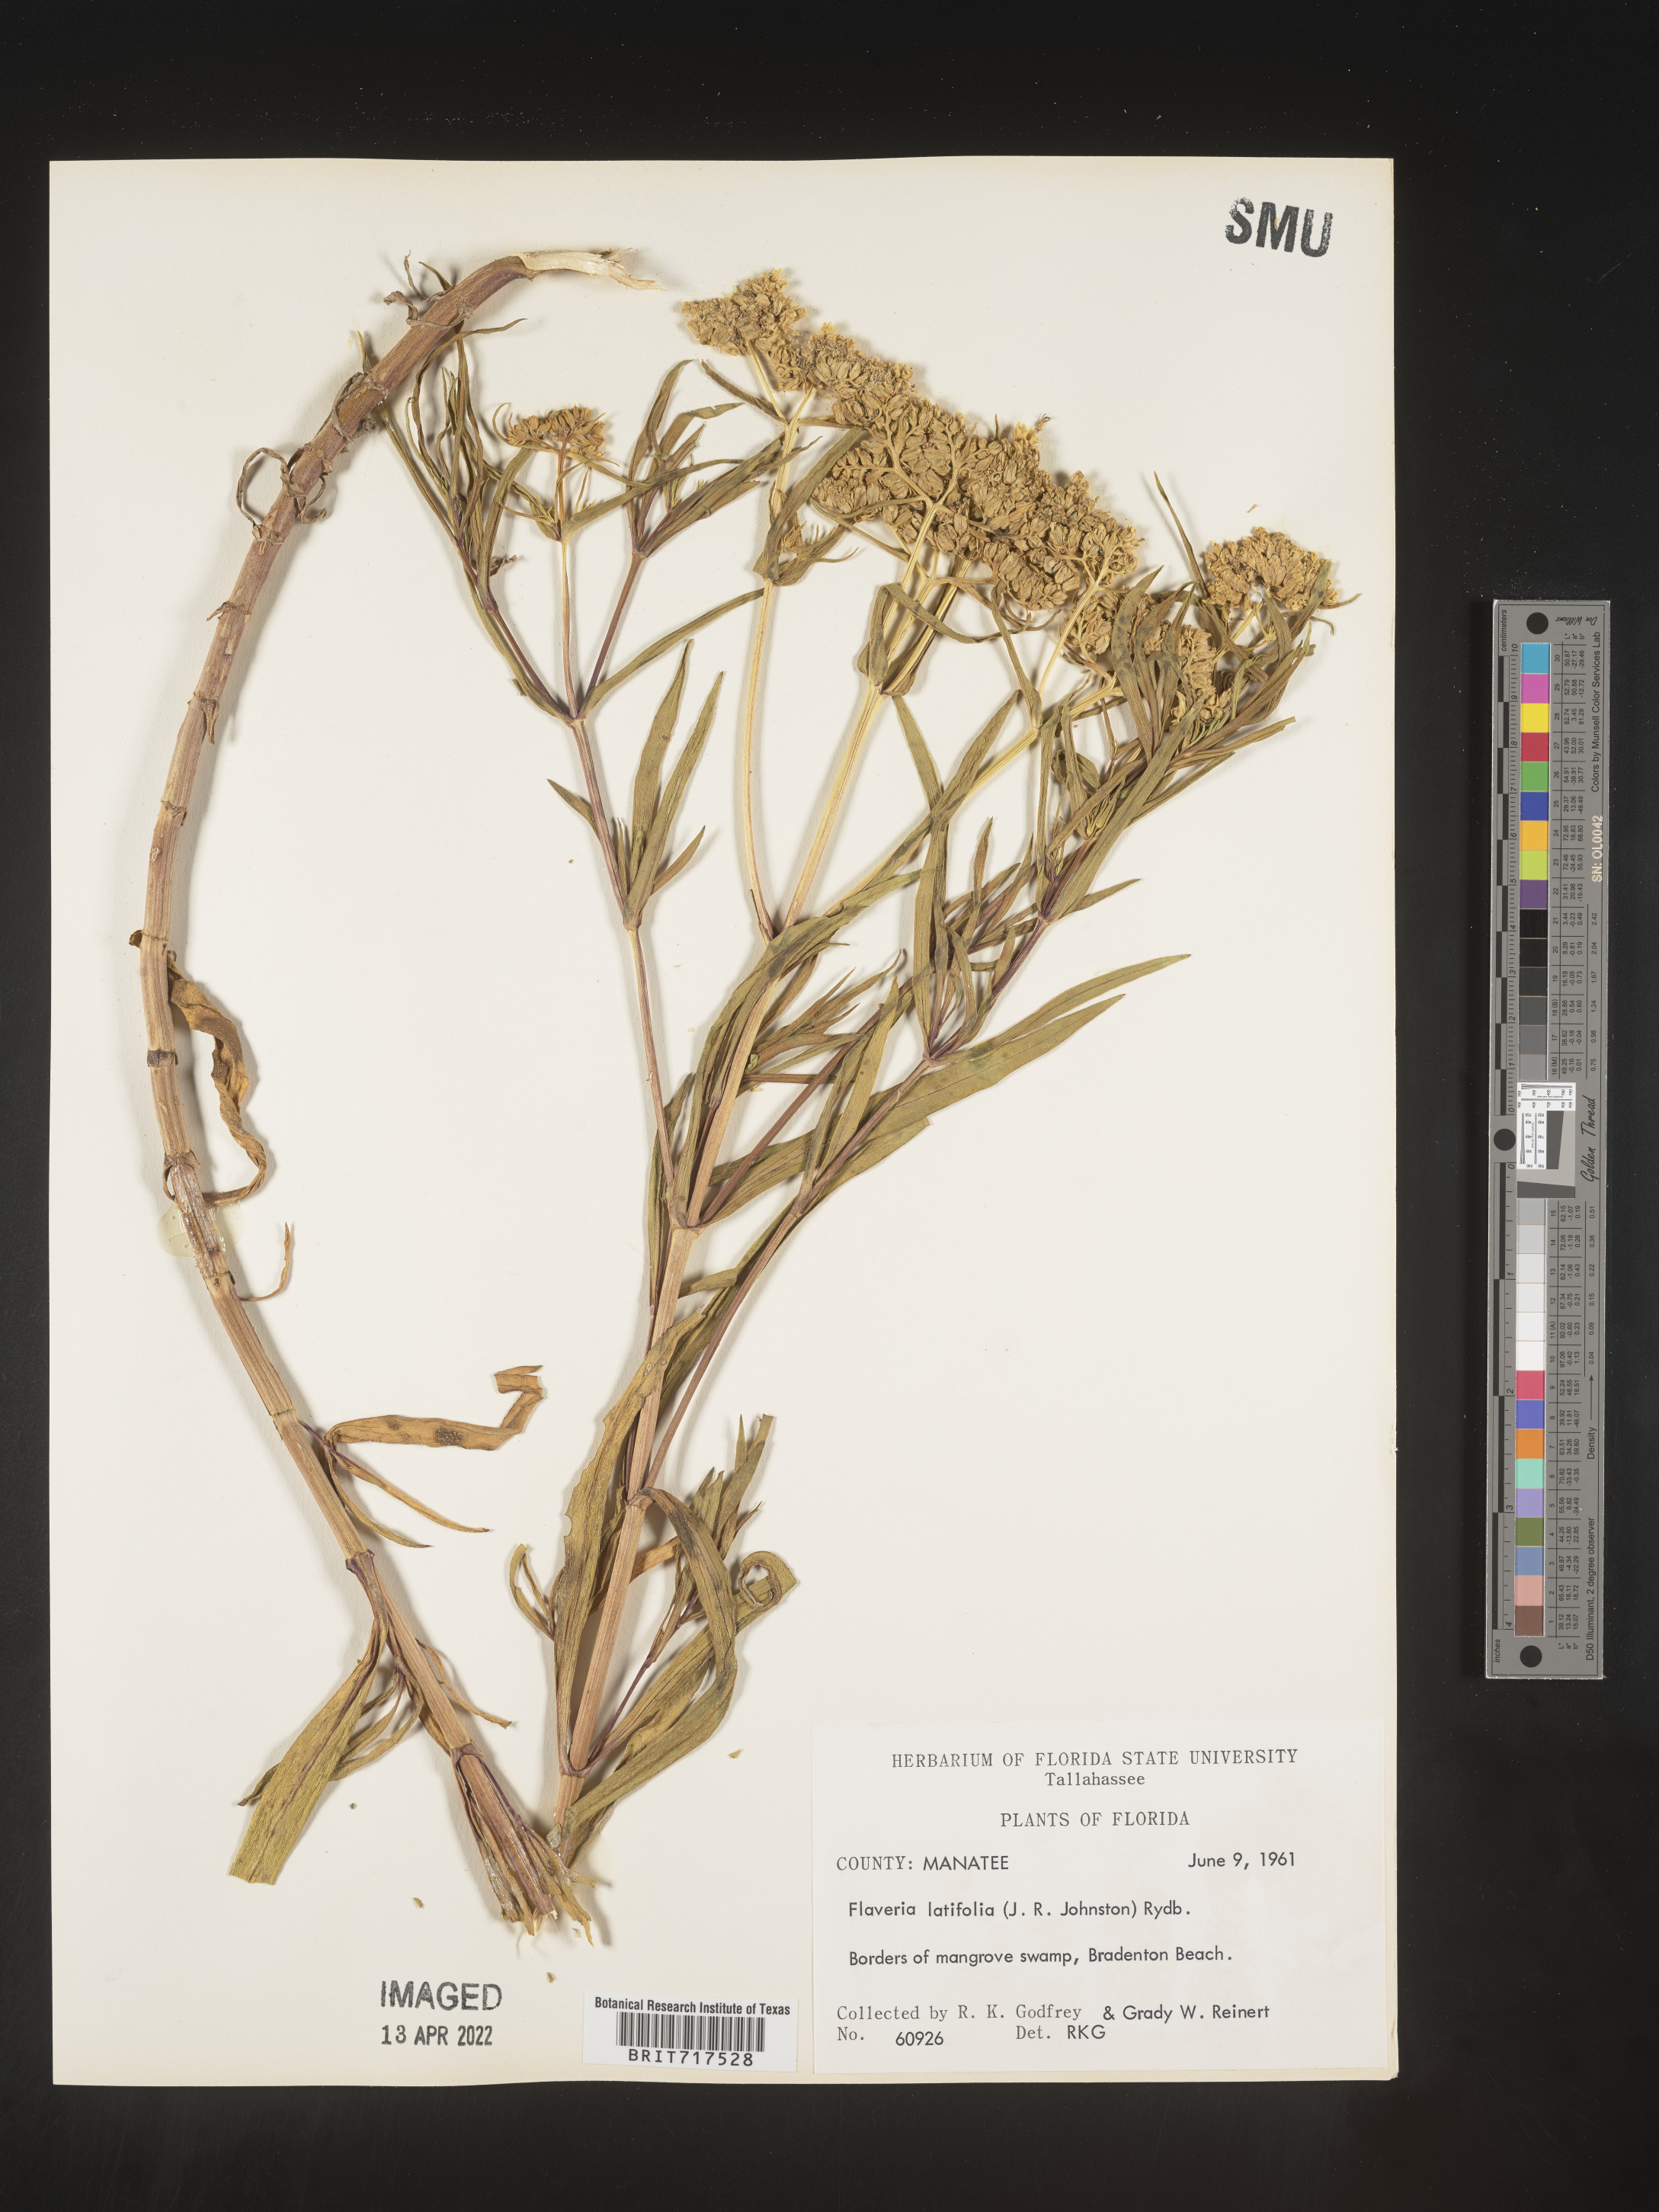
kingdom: Plantae
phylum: Tracheophyta
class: Magnoliopsida
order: Asterales
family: Asteraceae
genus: Flaveria
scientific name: Flaveria linearis
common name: Yellowtop
